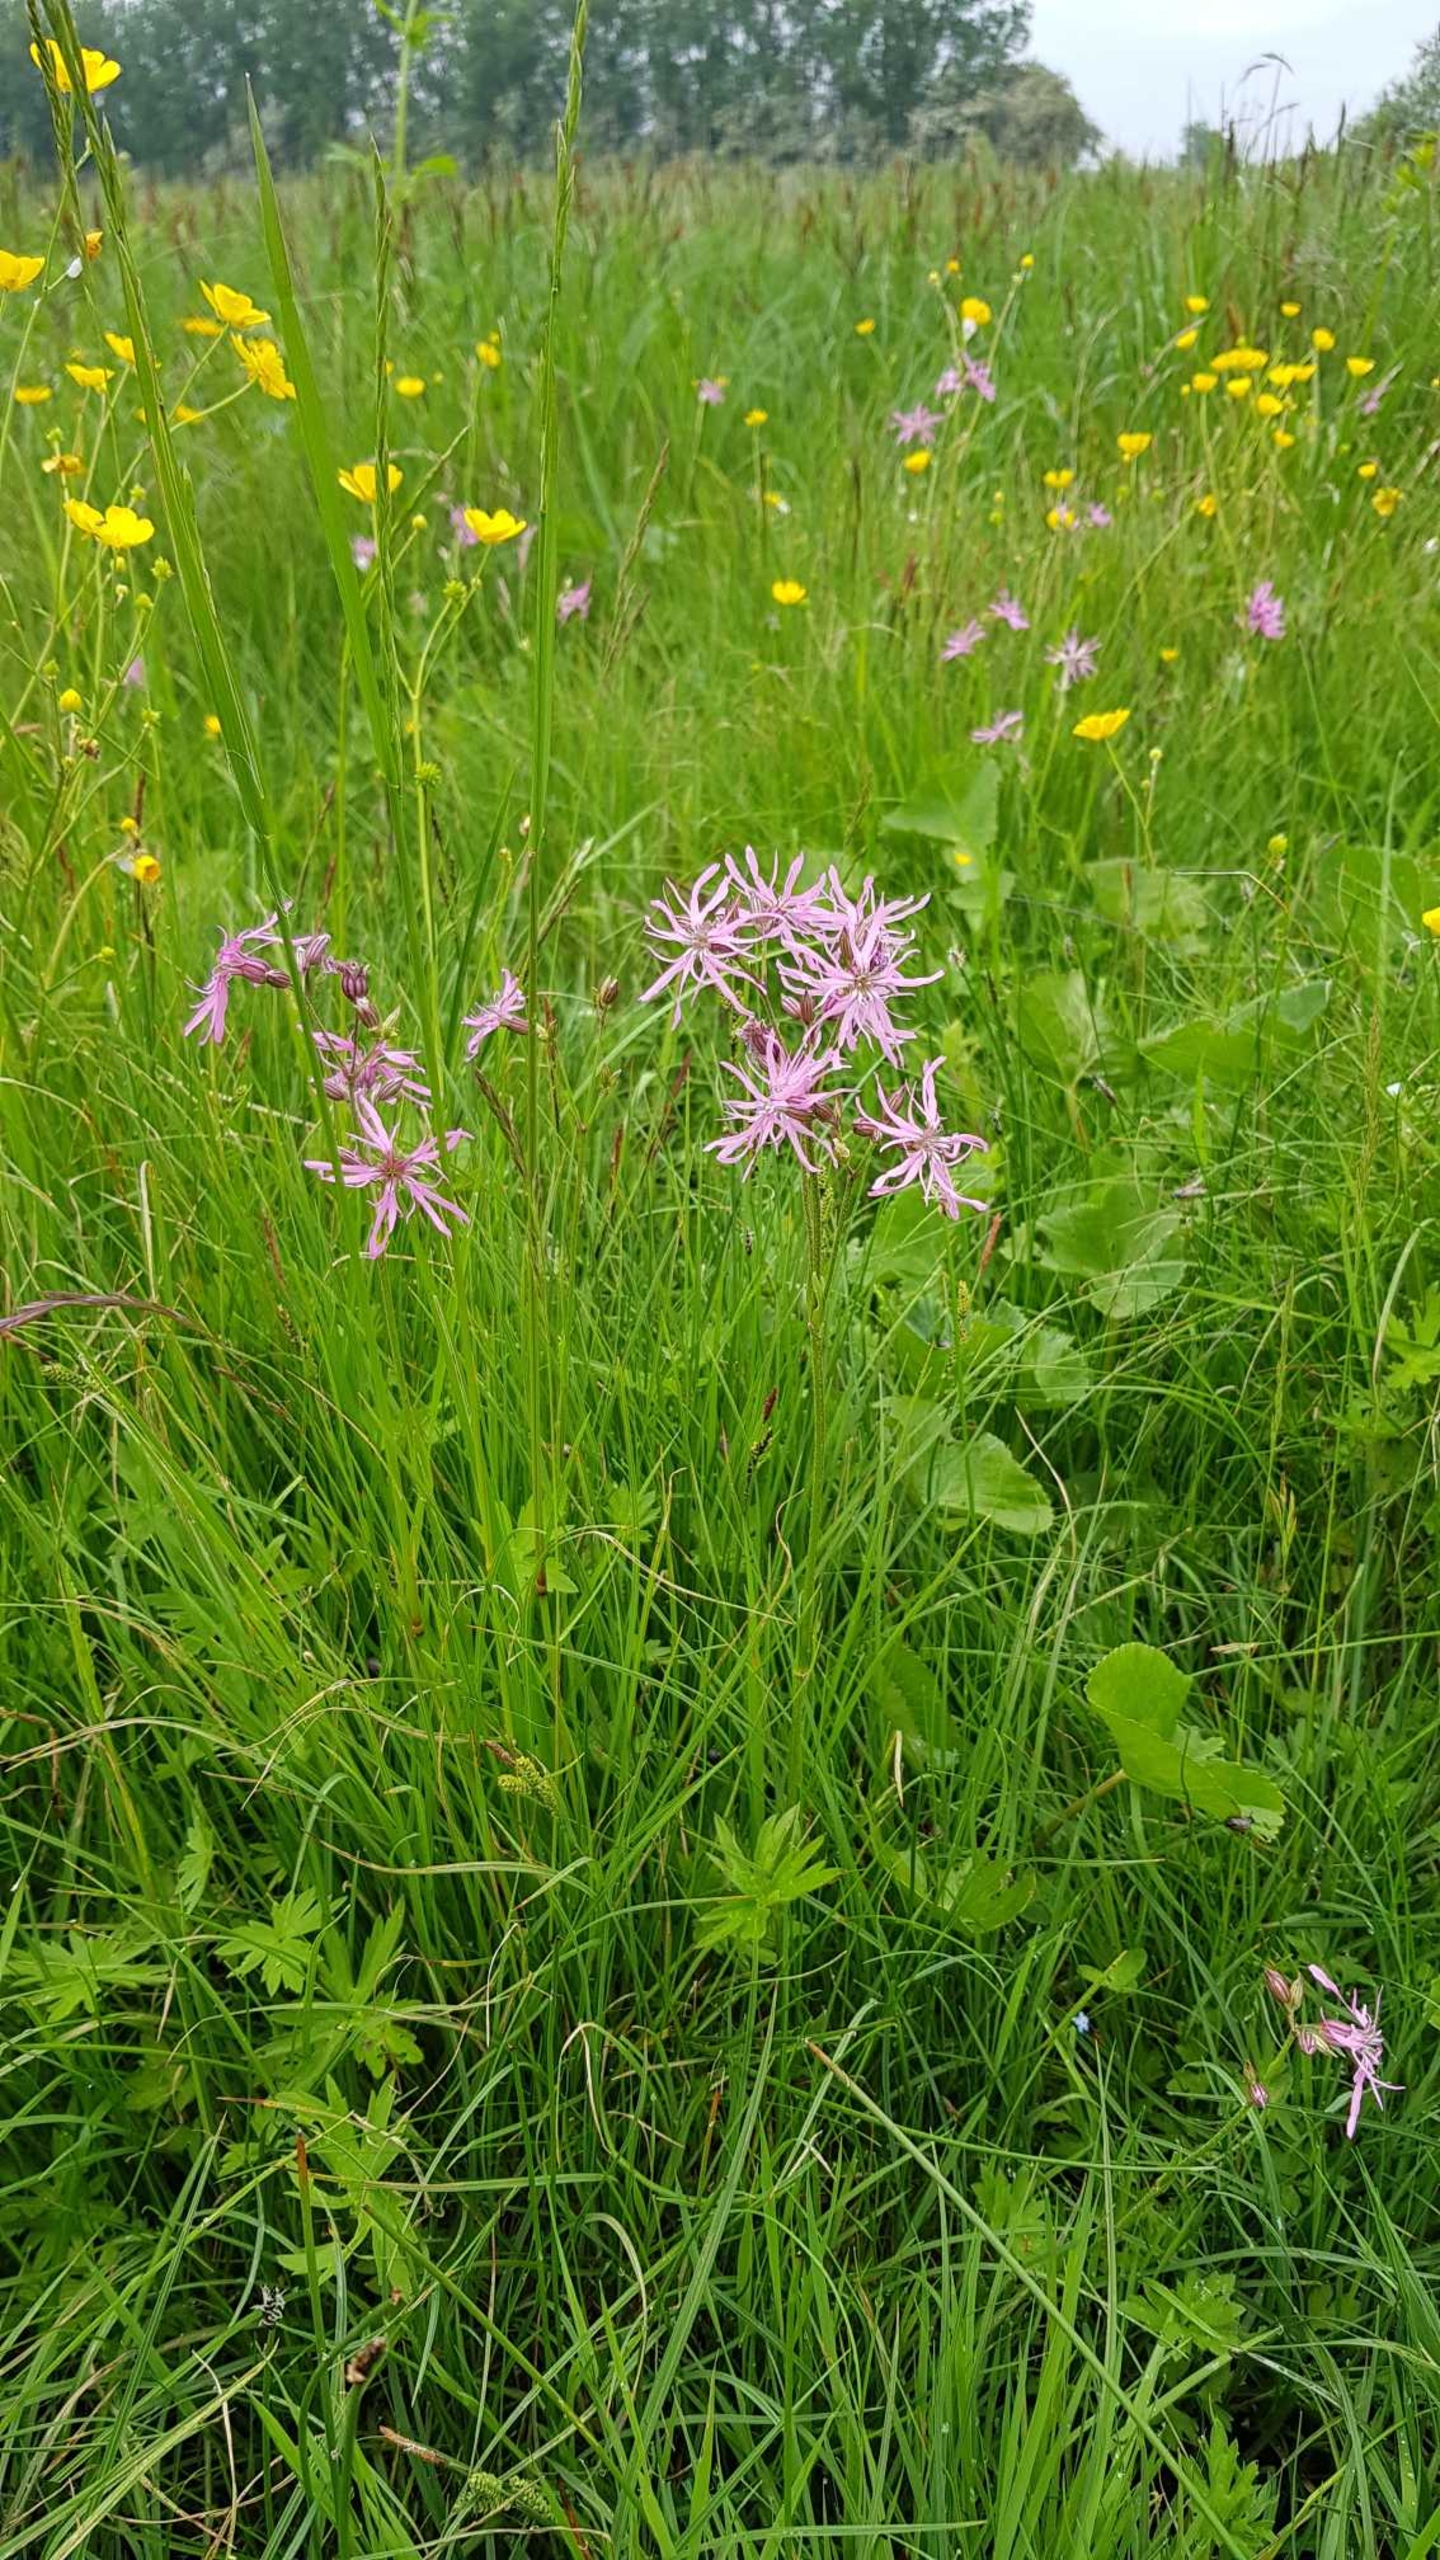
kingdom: Plantae
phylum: Tracheophyta
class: Magnoliopsida
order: Caryophyllales
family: Caryophyllaceae
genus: Silene
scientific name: Silene flos-cuculi
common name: Trævlekrone
